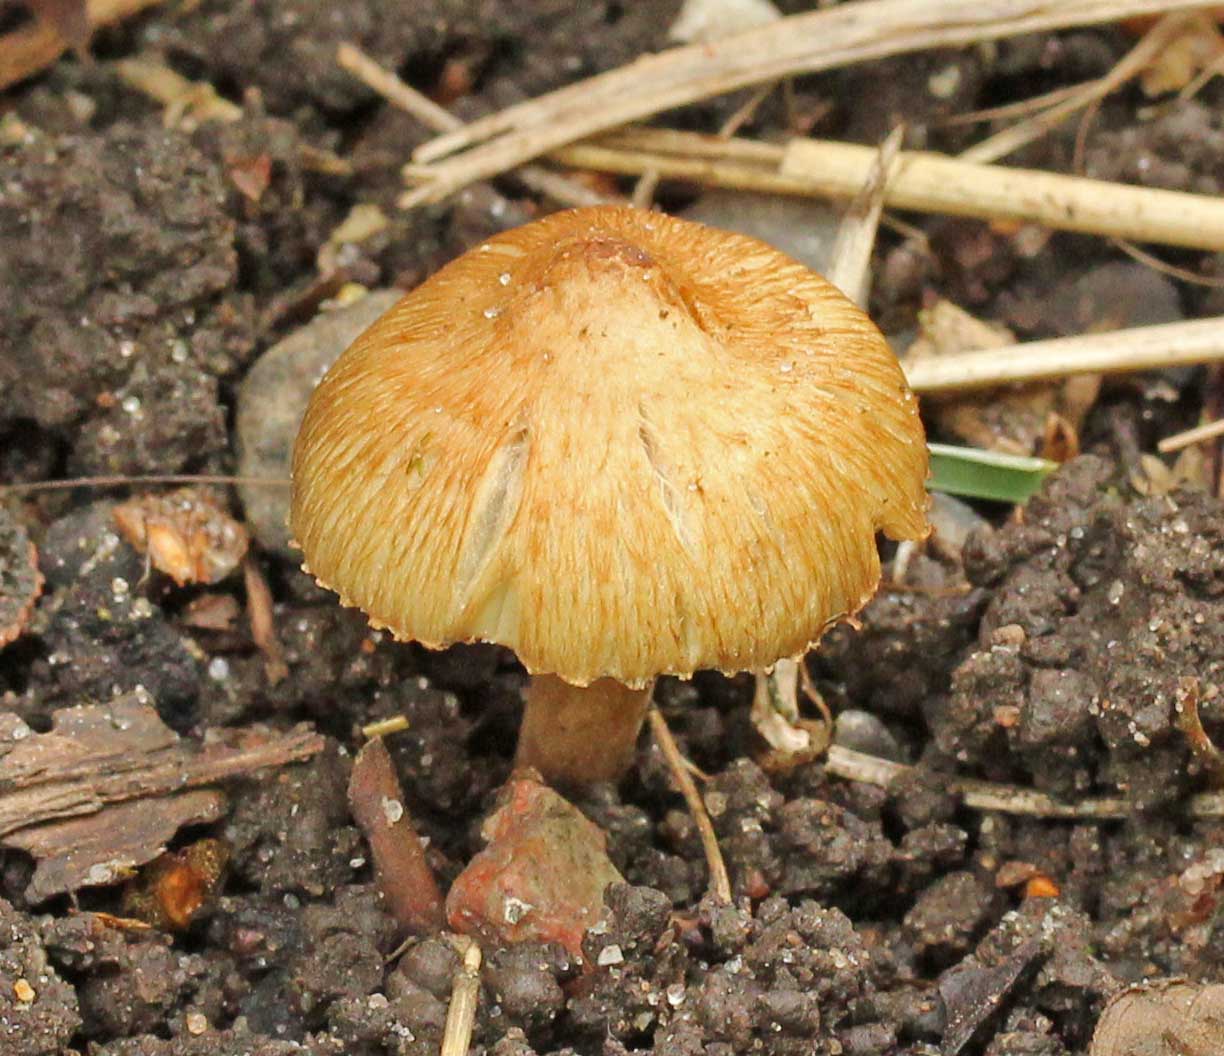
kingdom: Fungi
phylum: Basidiomycota
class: Agaricomycetes
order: Agaricales
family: Inocybaceae
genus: Pseudosperma
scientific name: Pseudosperma rimosum
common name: gulbladet trævlhat
